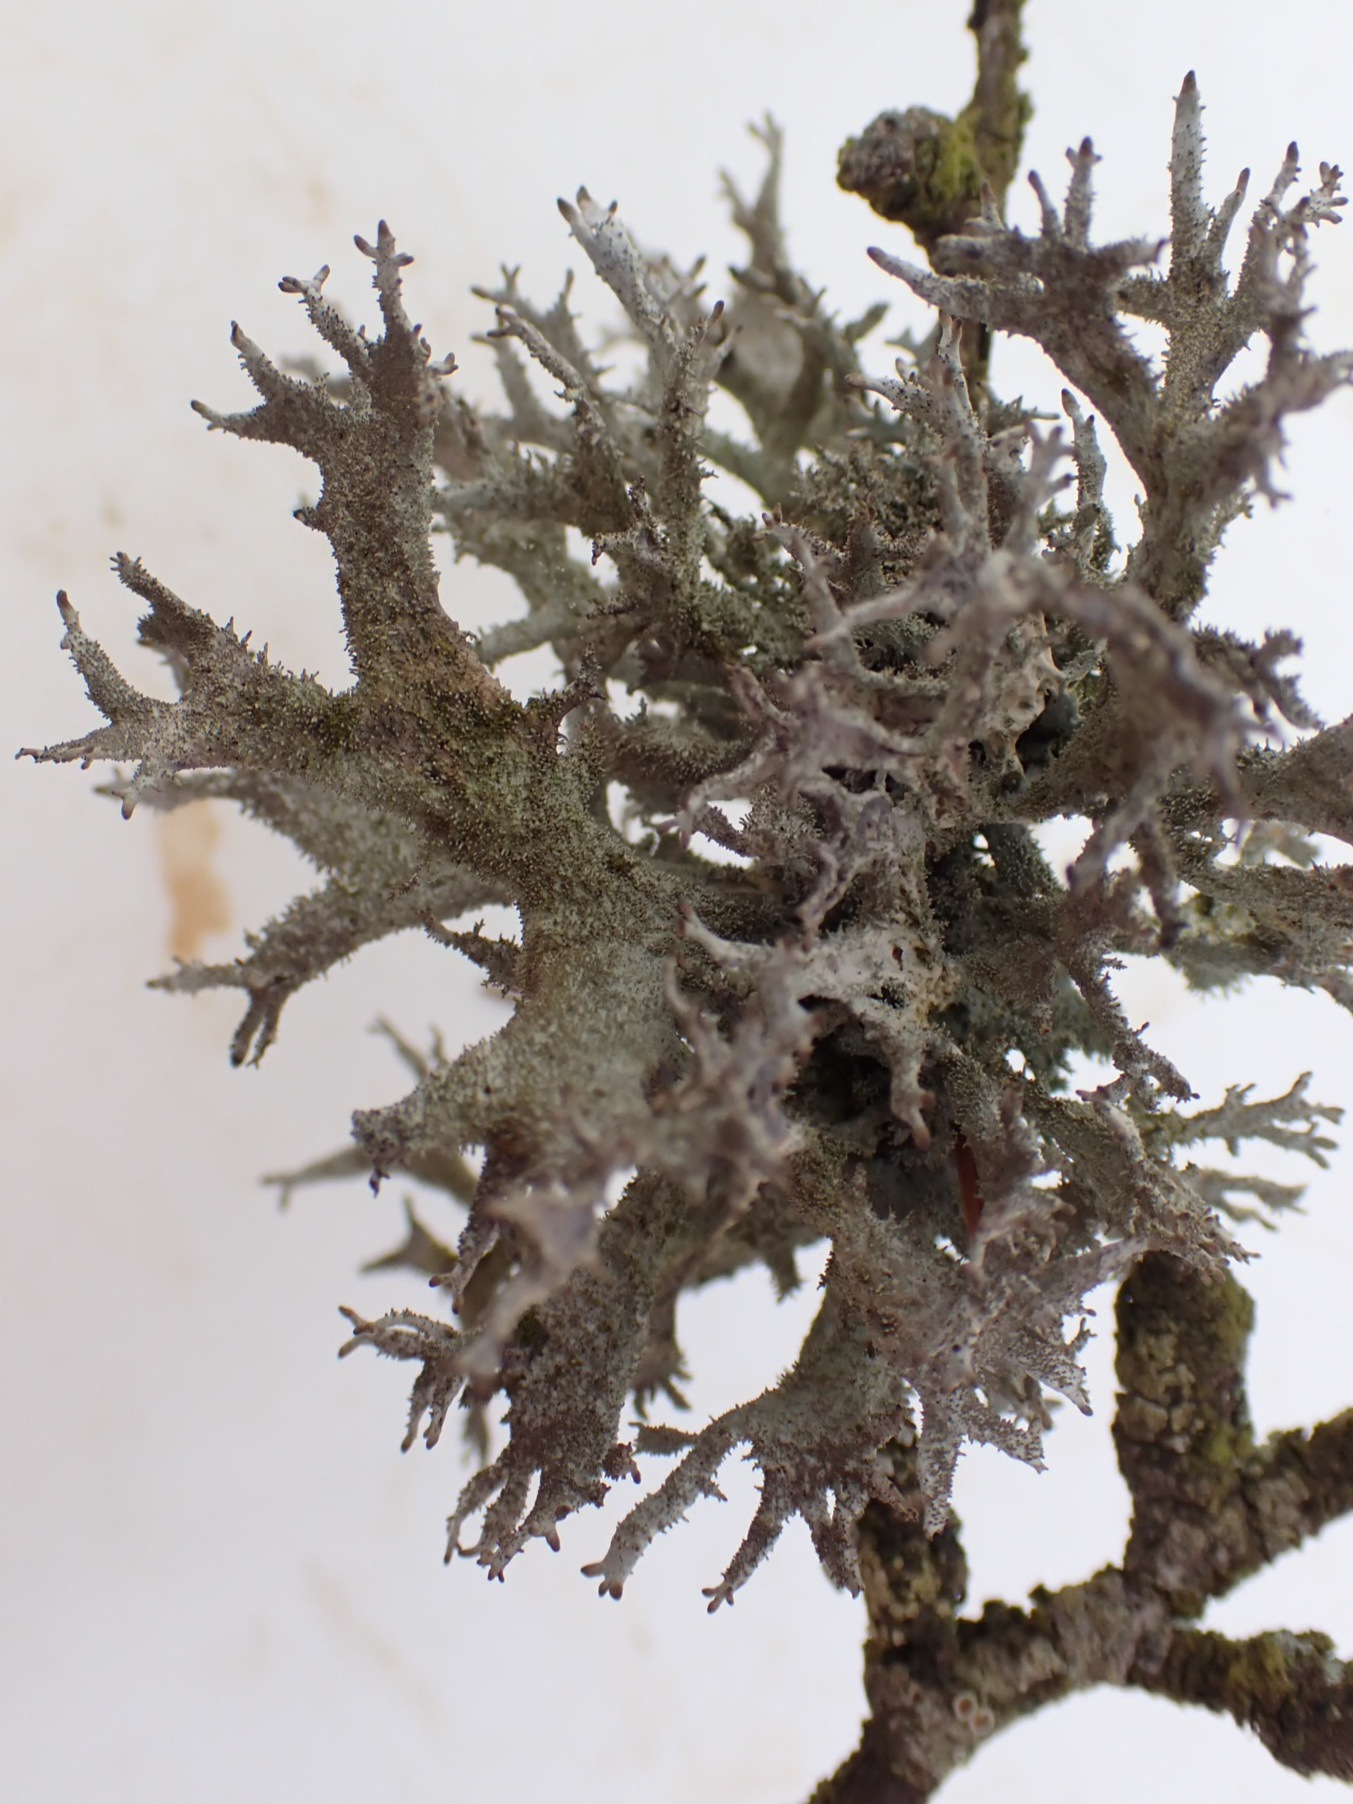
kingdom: Fungi
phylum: Ascomycota
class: Lecanoromycetes
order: Lecanorales
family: Parmeliaceae
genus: Pseudevernia
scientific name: Pseudevernia furfuracea
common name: grå fyrrelav
